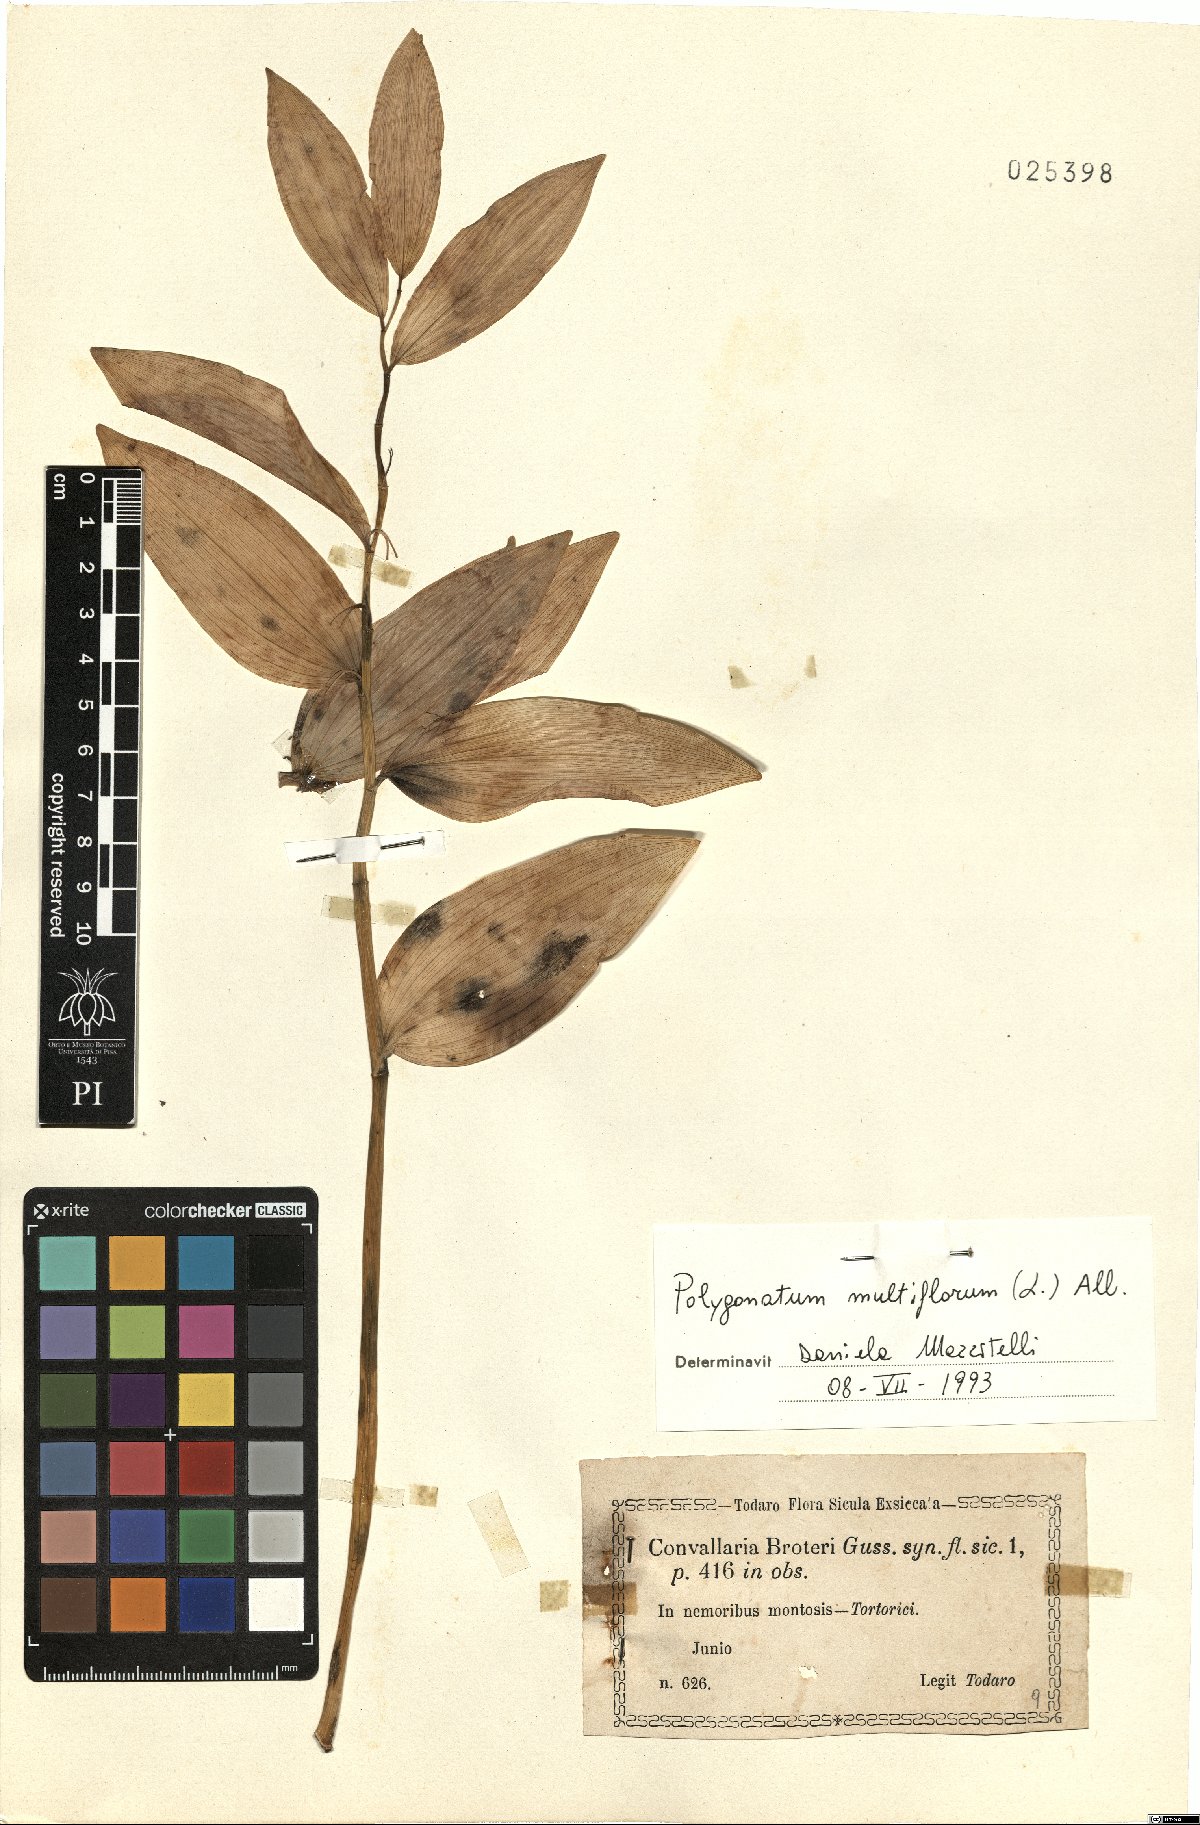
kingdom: Plantae
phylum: Tracheophyta
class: Liliopsida
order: Asparagales
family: Asparagaceae
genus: Polygonatum
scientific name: Polygonatum multiflorum
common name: Solomon's-seal
